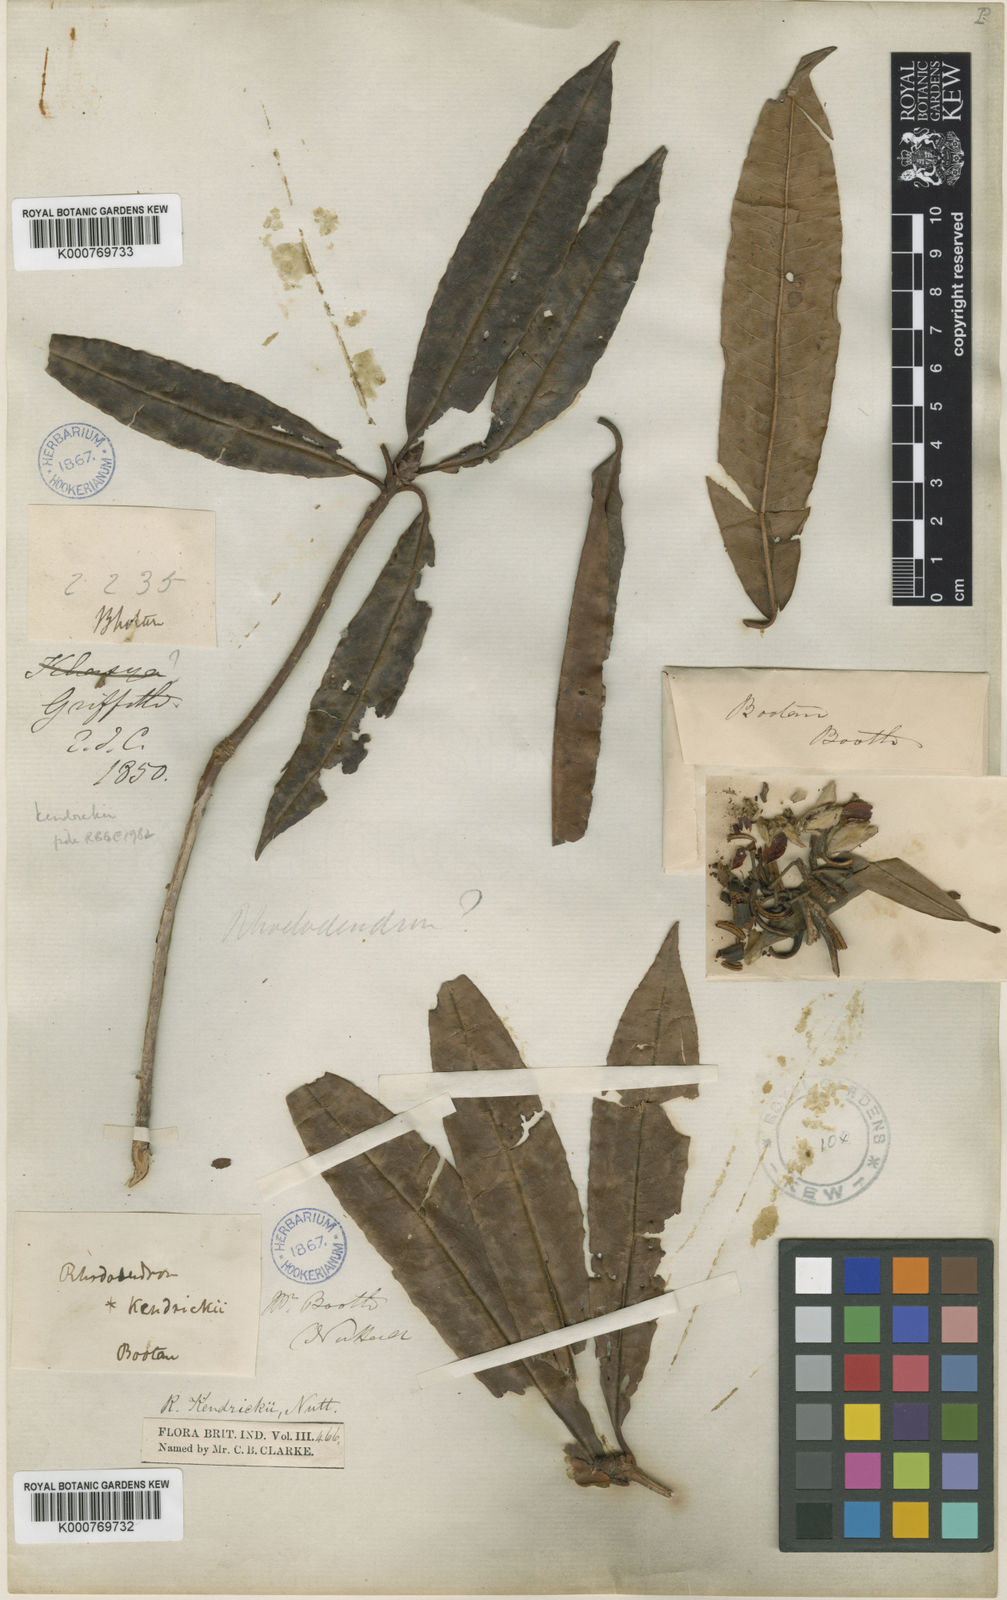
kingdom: Plantae
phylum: Tracheophyta
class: Magnoliopsida
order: Ericales
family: Ericaceae
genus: Rhododendron
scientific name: Rhododendron kendrickii
